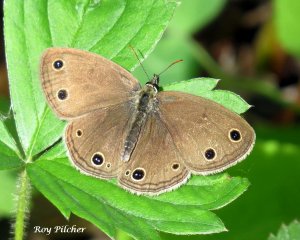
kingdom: Animalia
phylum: Arthropoda
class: Insecta
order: Lepidoptera
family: Nymphalidae
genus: Euptychia
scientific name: Euptychia cymela
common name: Little Wood Satyr
